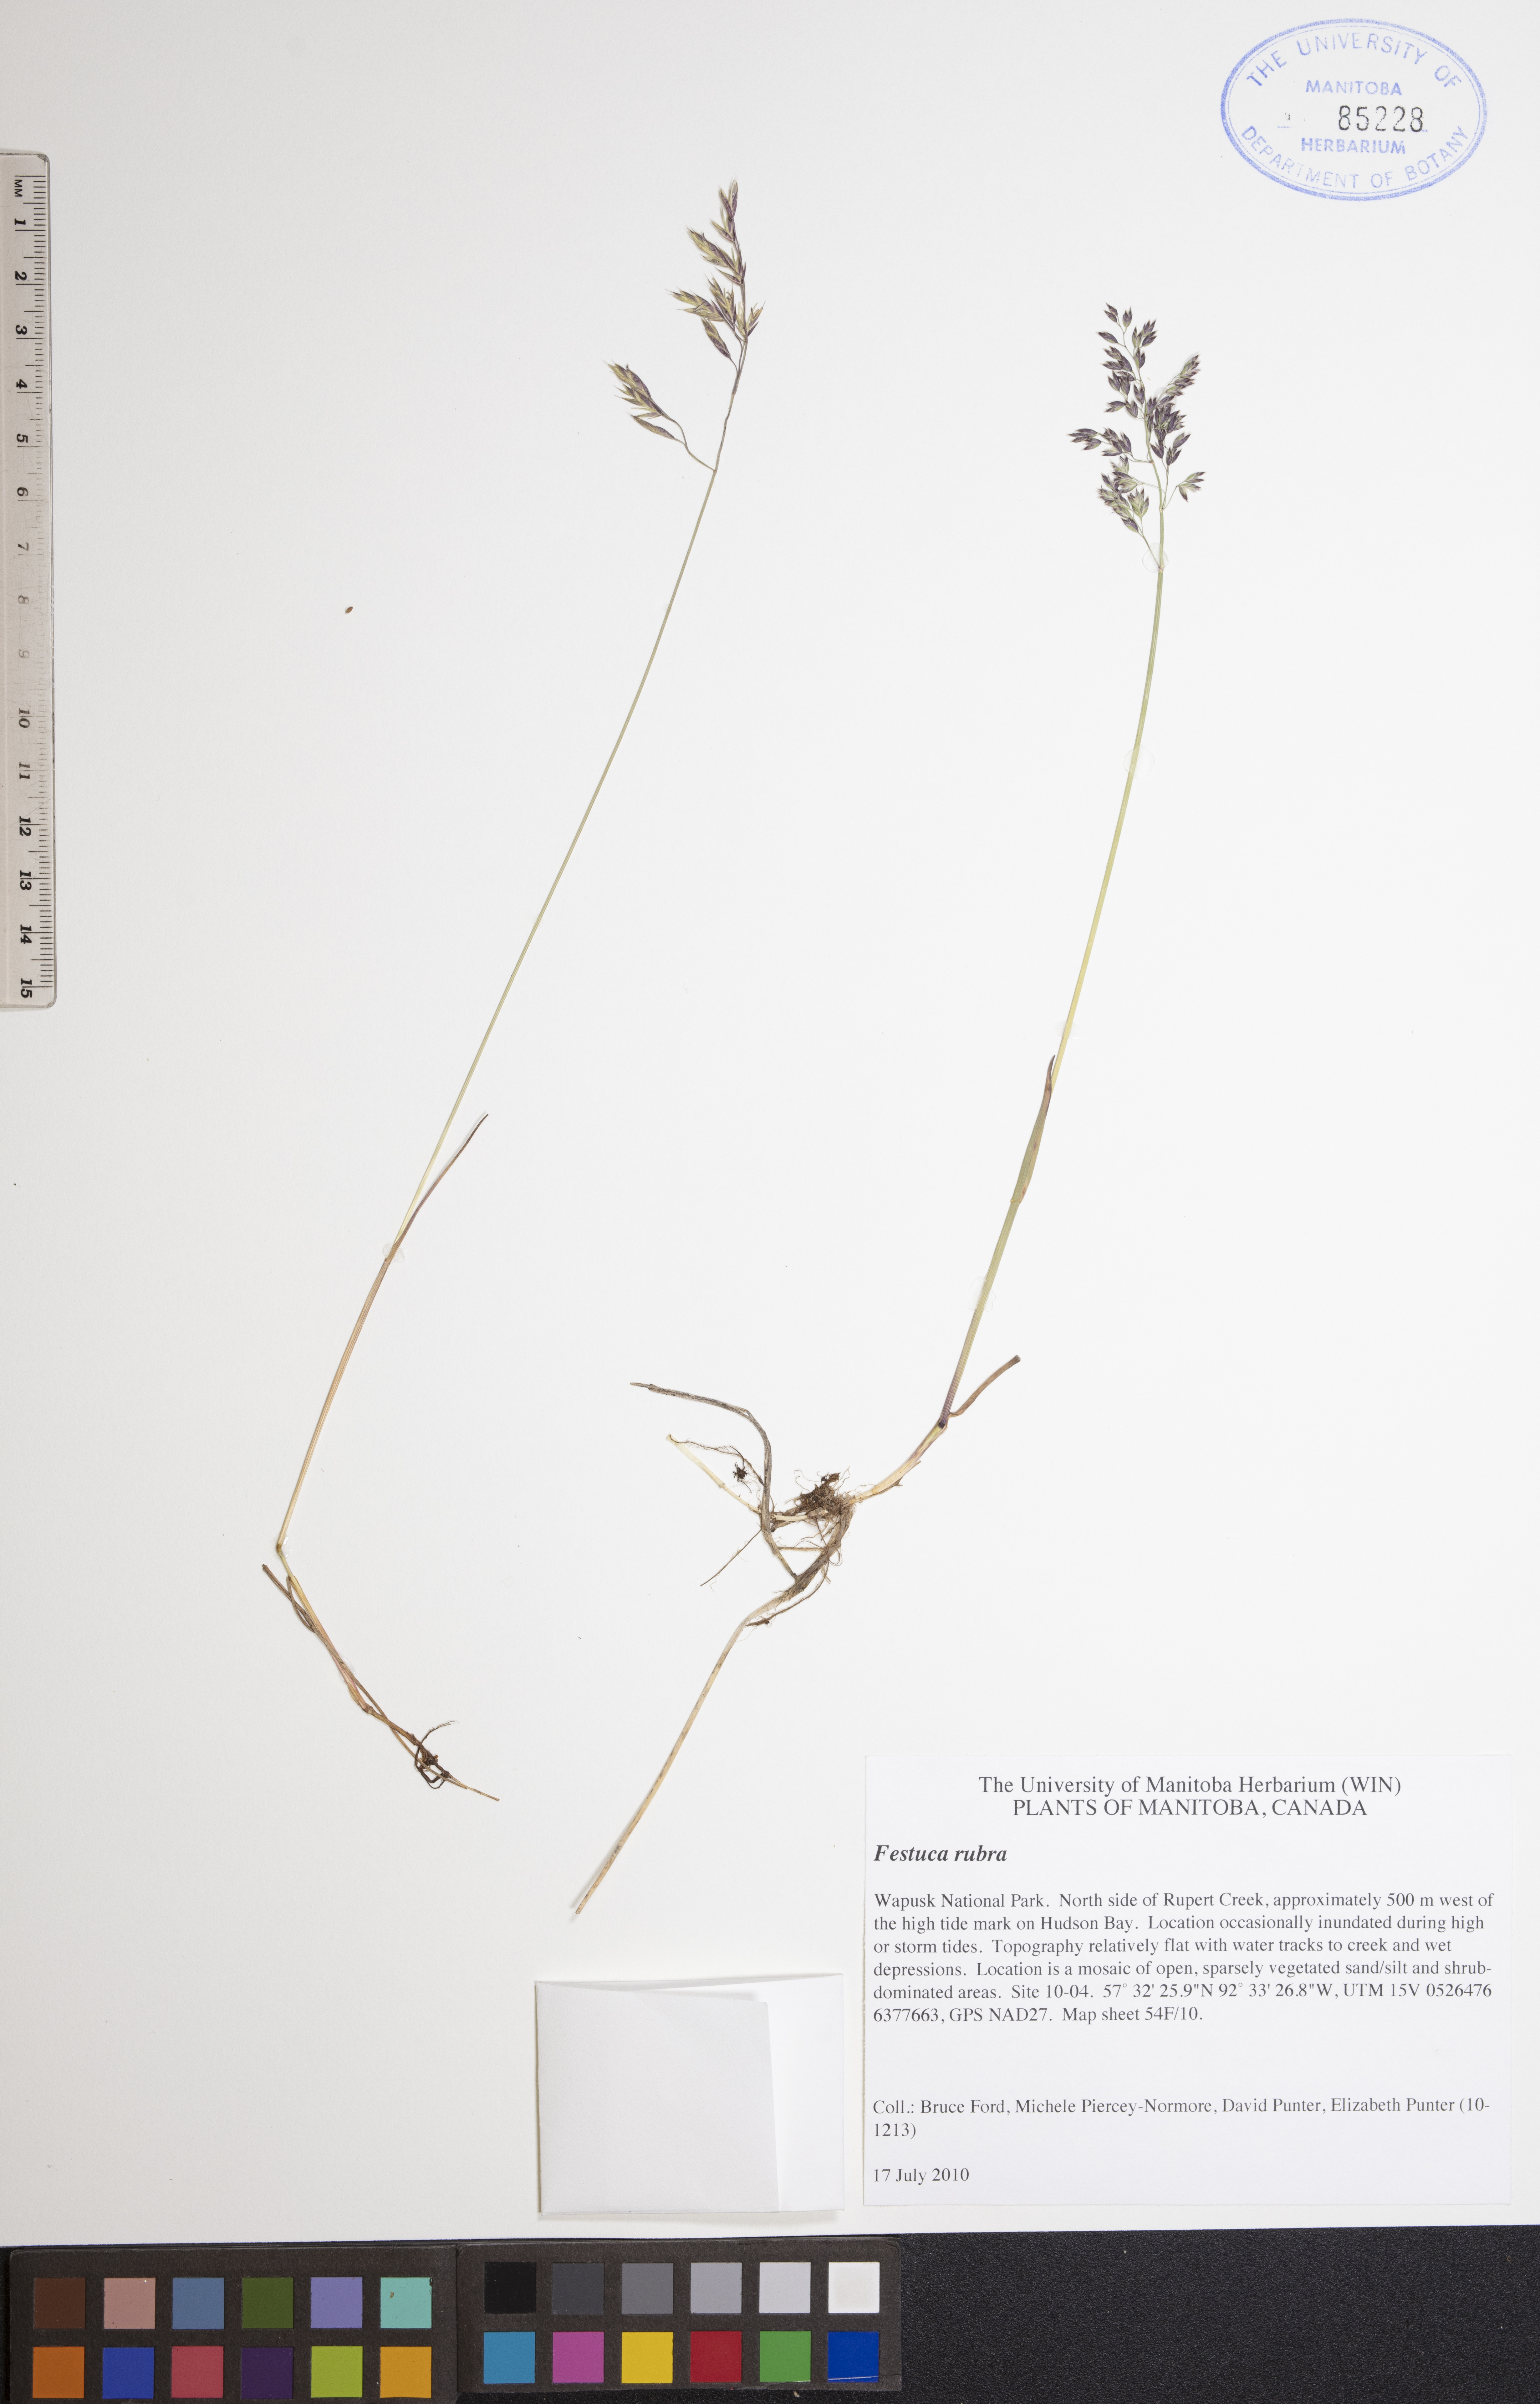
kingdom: Plantae
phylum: Tracheophyta
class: Liliopsida
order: Poales
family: Poaceae
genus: Festuca
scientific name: Festuca rubra
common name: Red fescue
